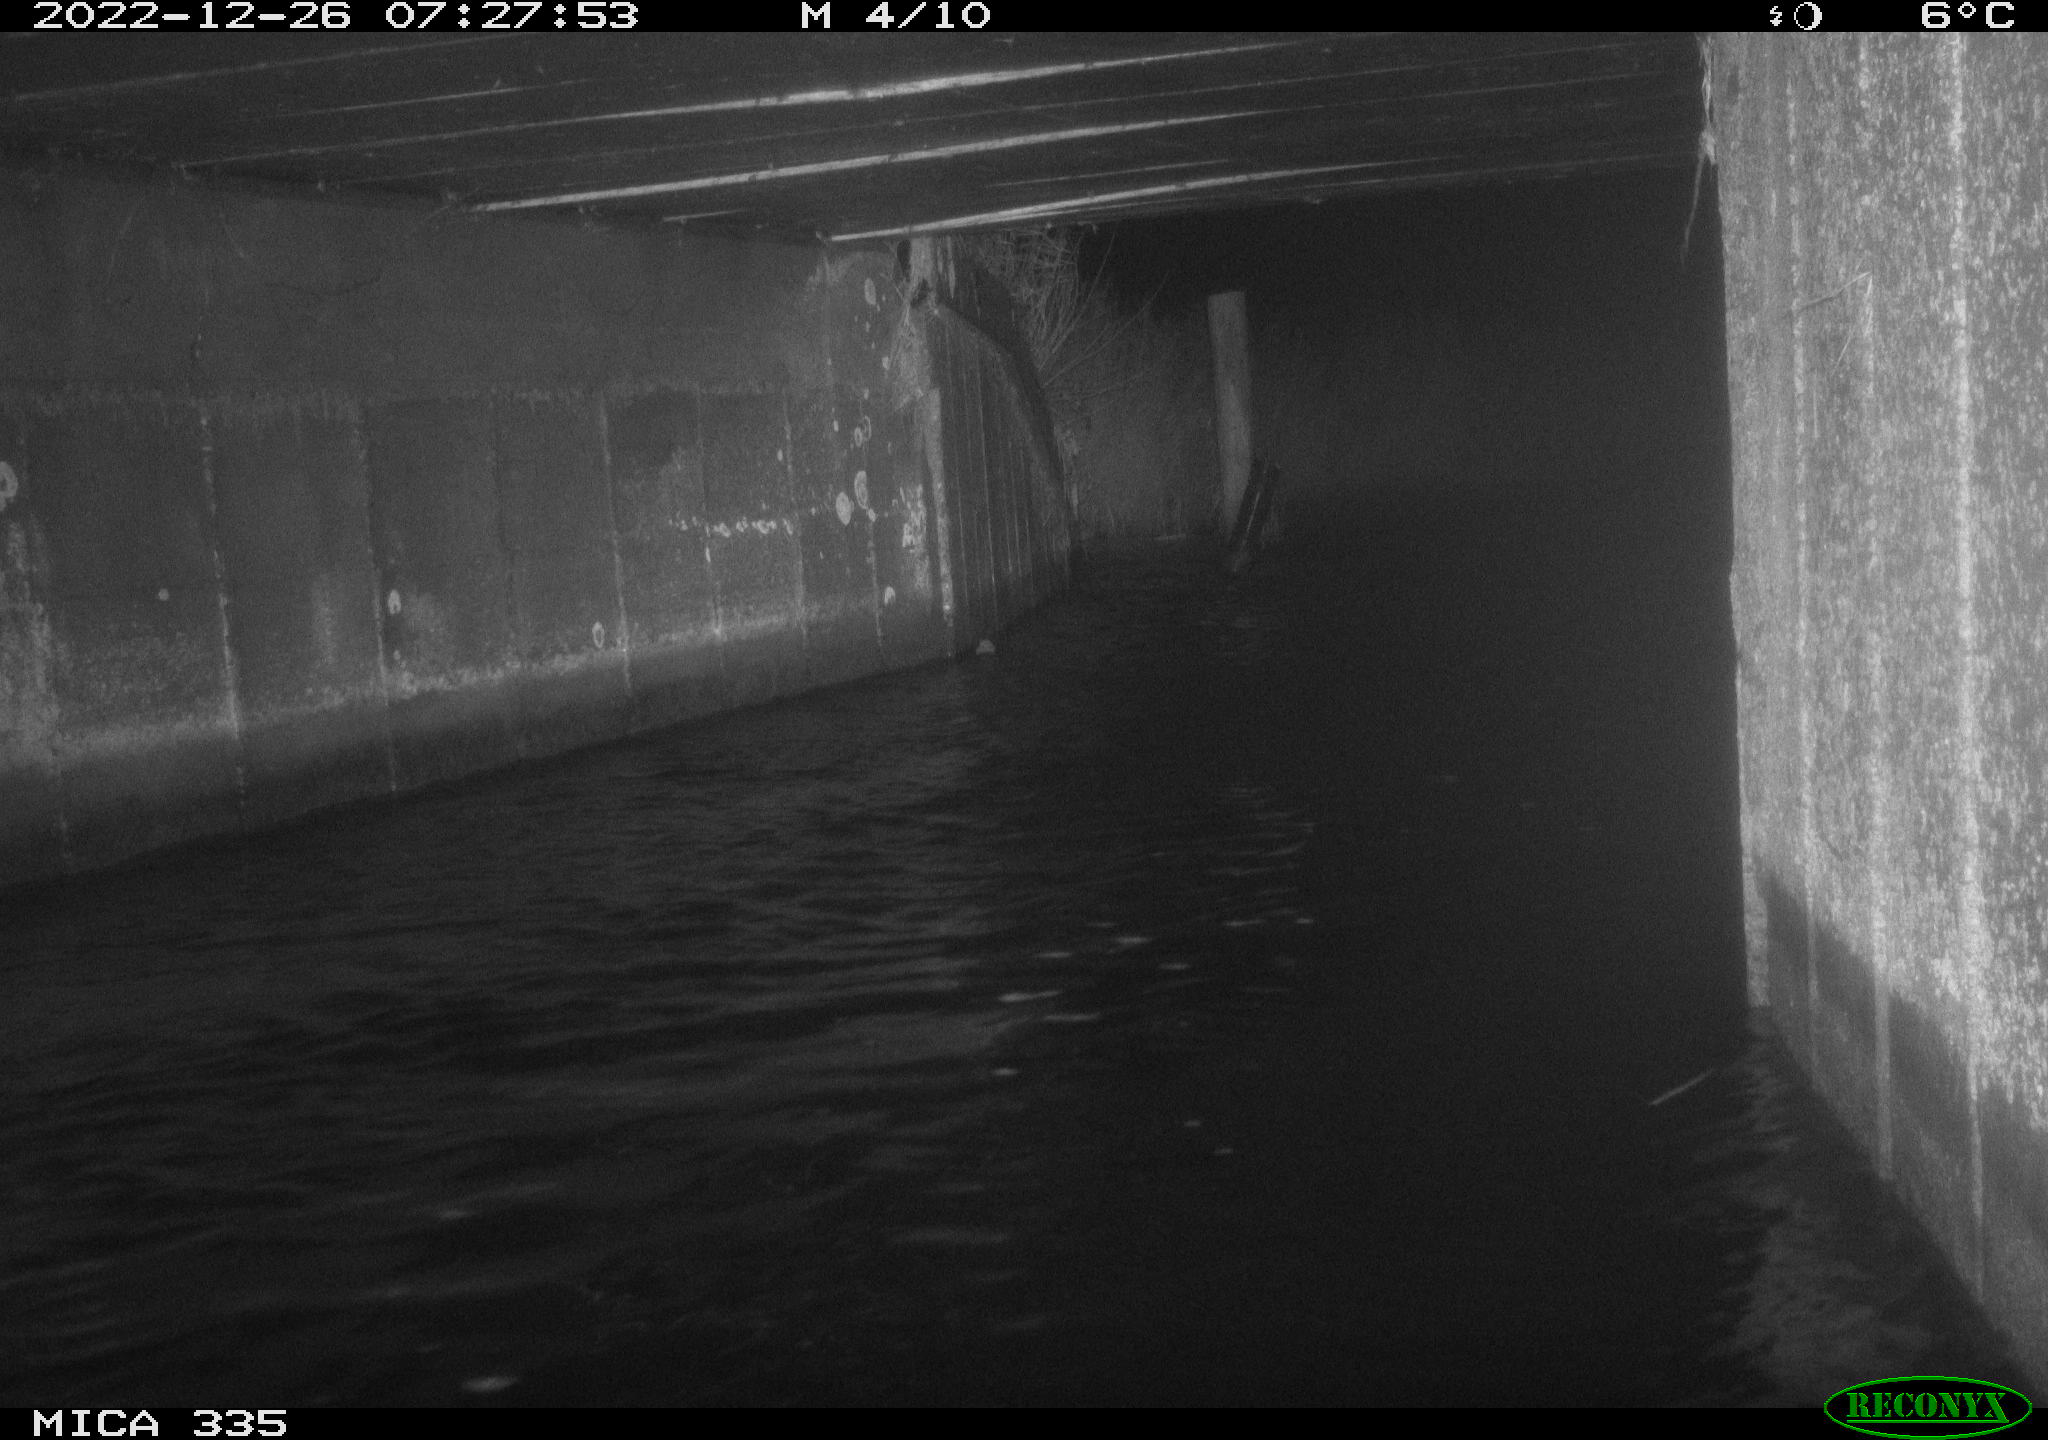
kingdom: Animalia
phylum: Chordata
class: Aves
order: Anseriformes
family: Anatidae
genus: Cygnus
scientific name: Cygnus olor
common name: Mute swan
